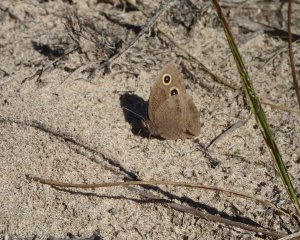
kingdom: Animalia
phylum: Arthropoda
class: Insecta
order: Lepidoptera
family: Nymphalidae
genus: Cercyonis
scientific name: Cercyonis pegala
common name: Common Wood-Nymph
